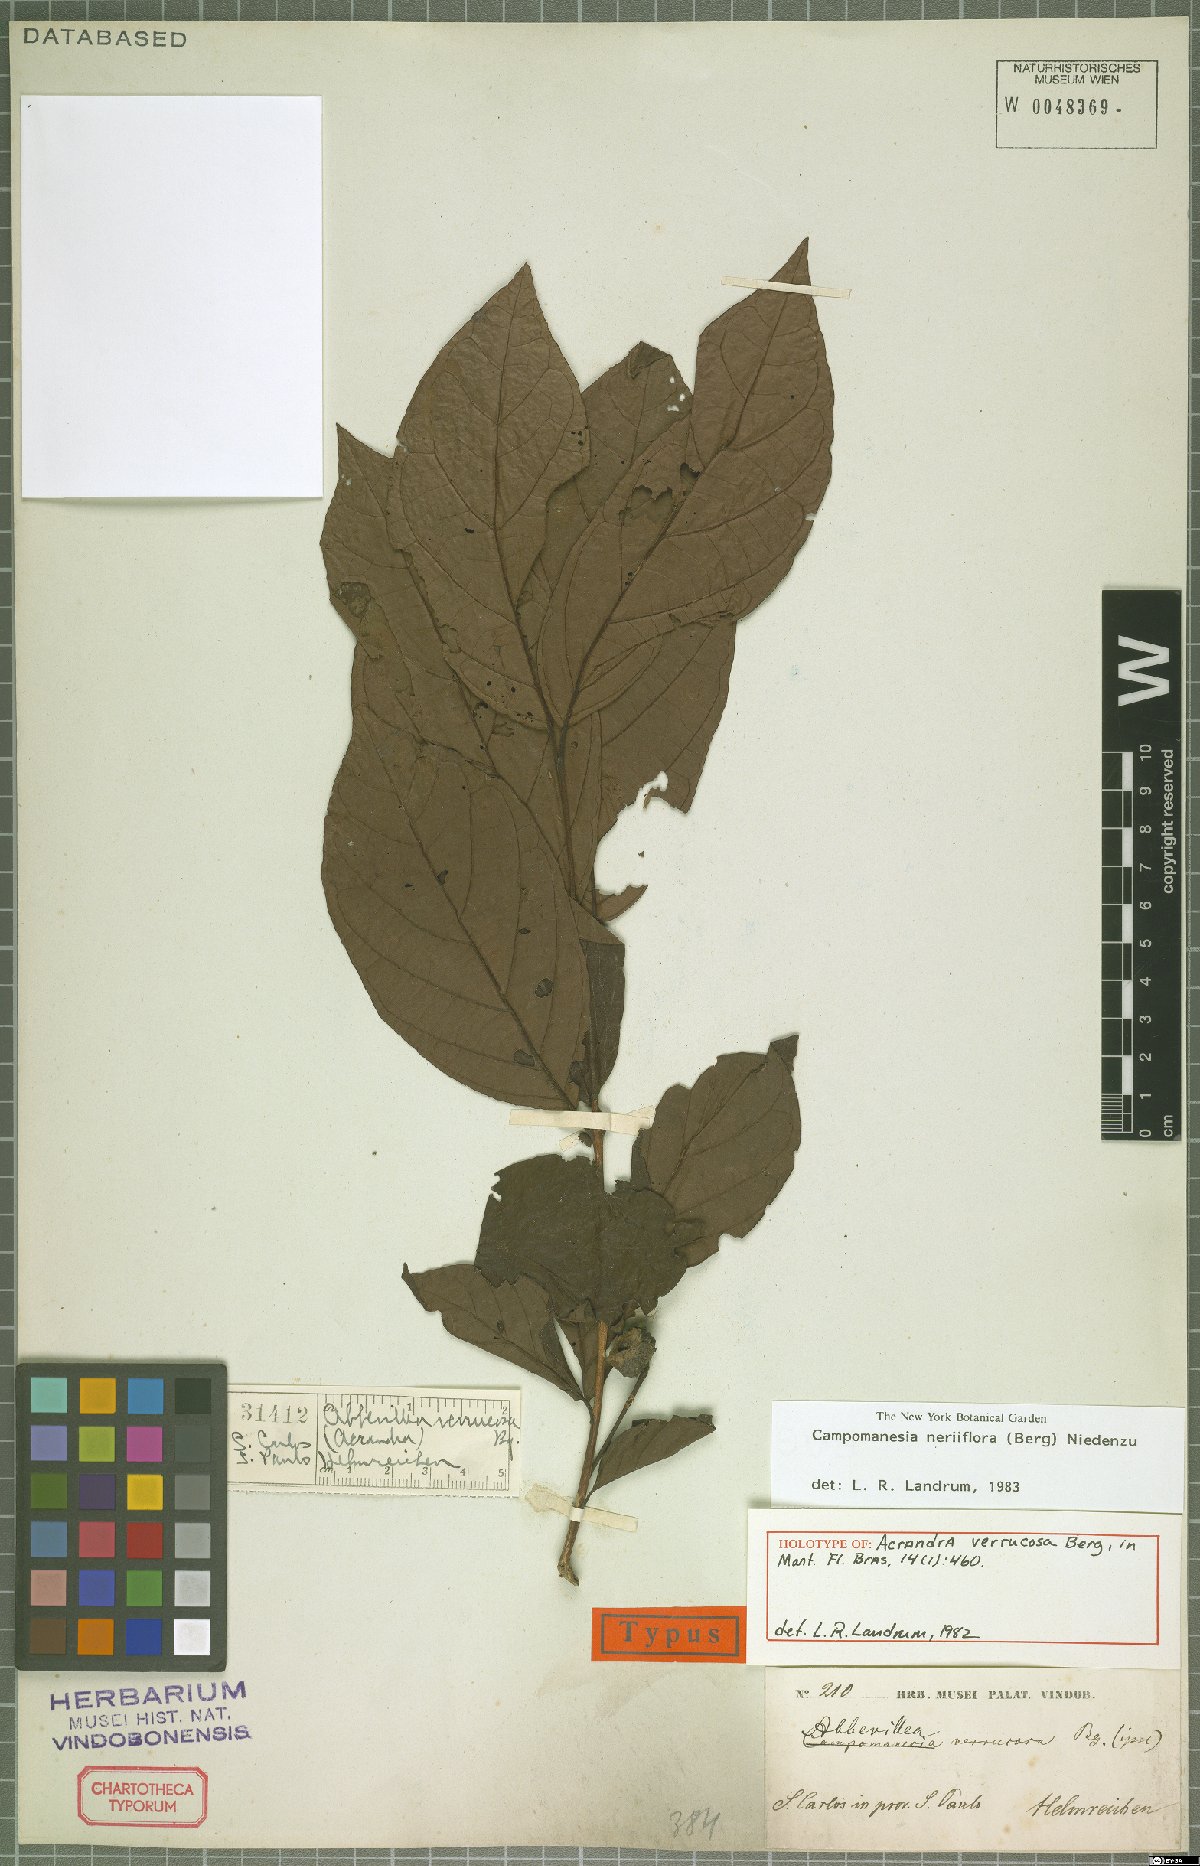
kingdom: Plantae
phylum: Tracheophyta
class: Magnoliopsida
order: Myrtales
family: Myrtaceae
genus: Campomanesia
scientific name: Campomanesia neriiflora
